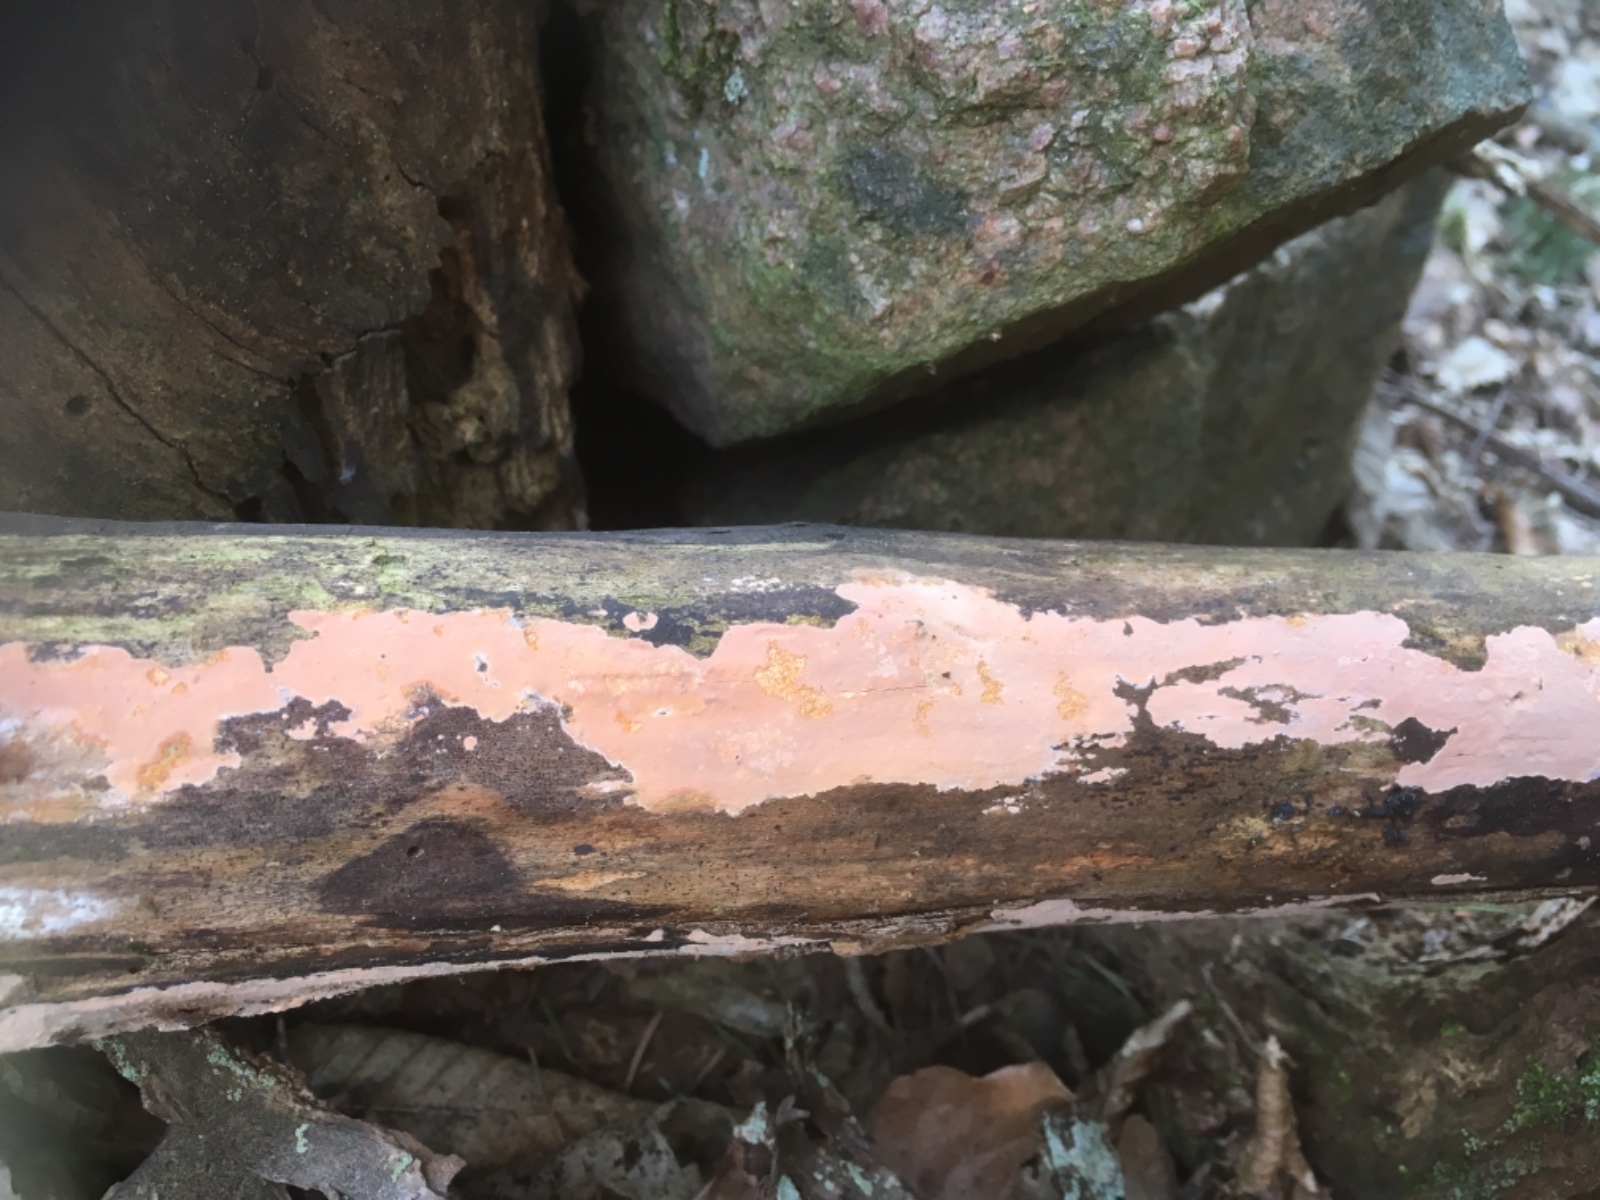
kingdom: Fungi
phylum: Basidiomycota
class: Agaricomycetes
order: Russulales
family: Peniophoraceae
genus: Peniophora
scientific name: Peniophora incarnata
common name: laksefarvet voksskind
